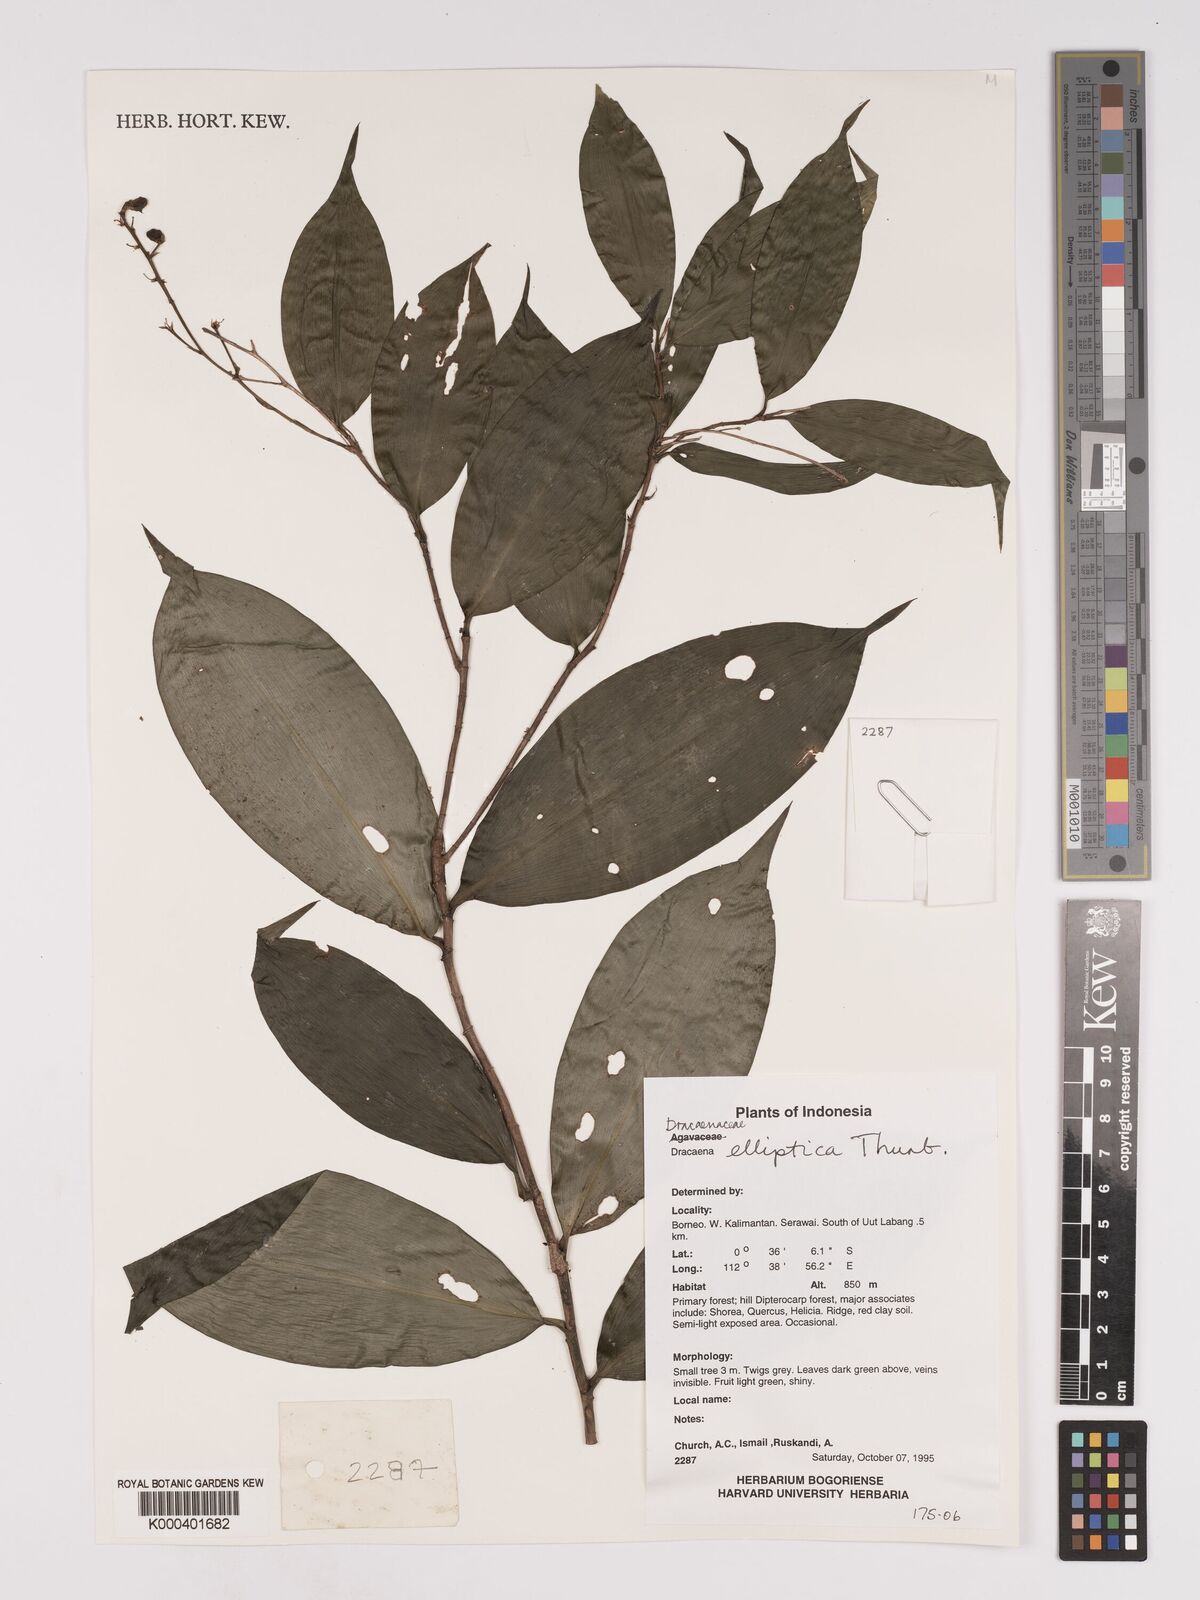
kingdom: Plantae
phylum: Tracheophyta
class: Liliopsida
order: Asparagales
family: Asparagaceae
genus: Dracaena
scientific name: Dracaena elliptica
